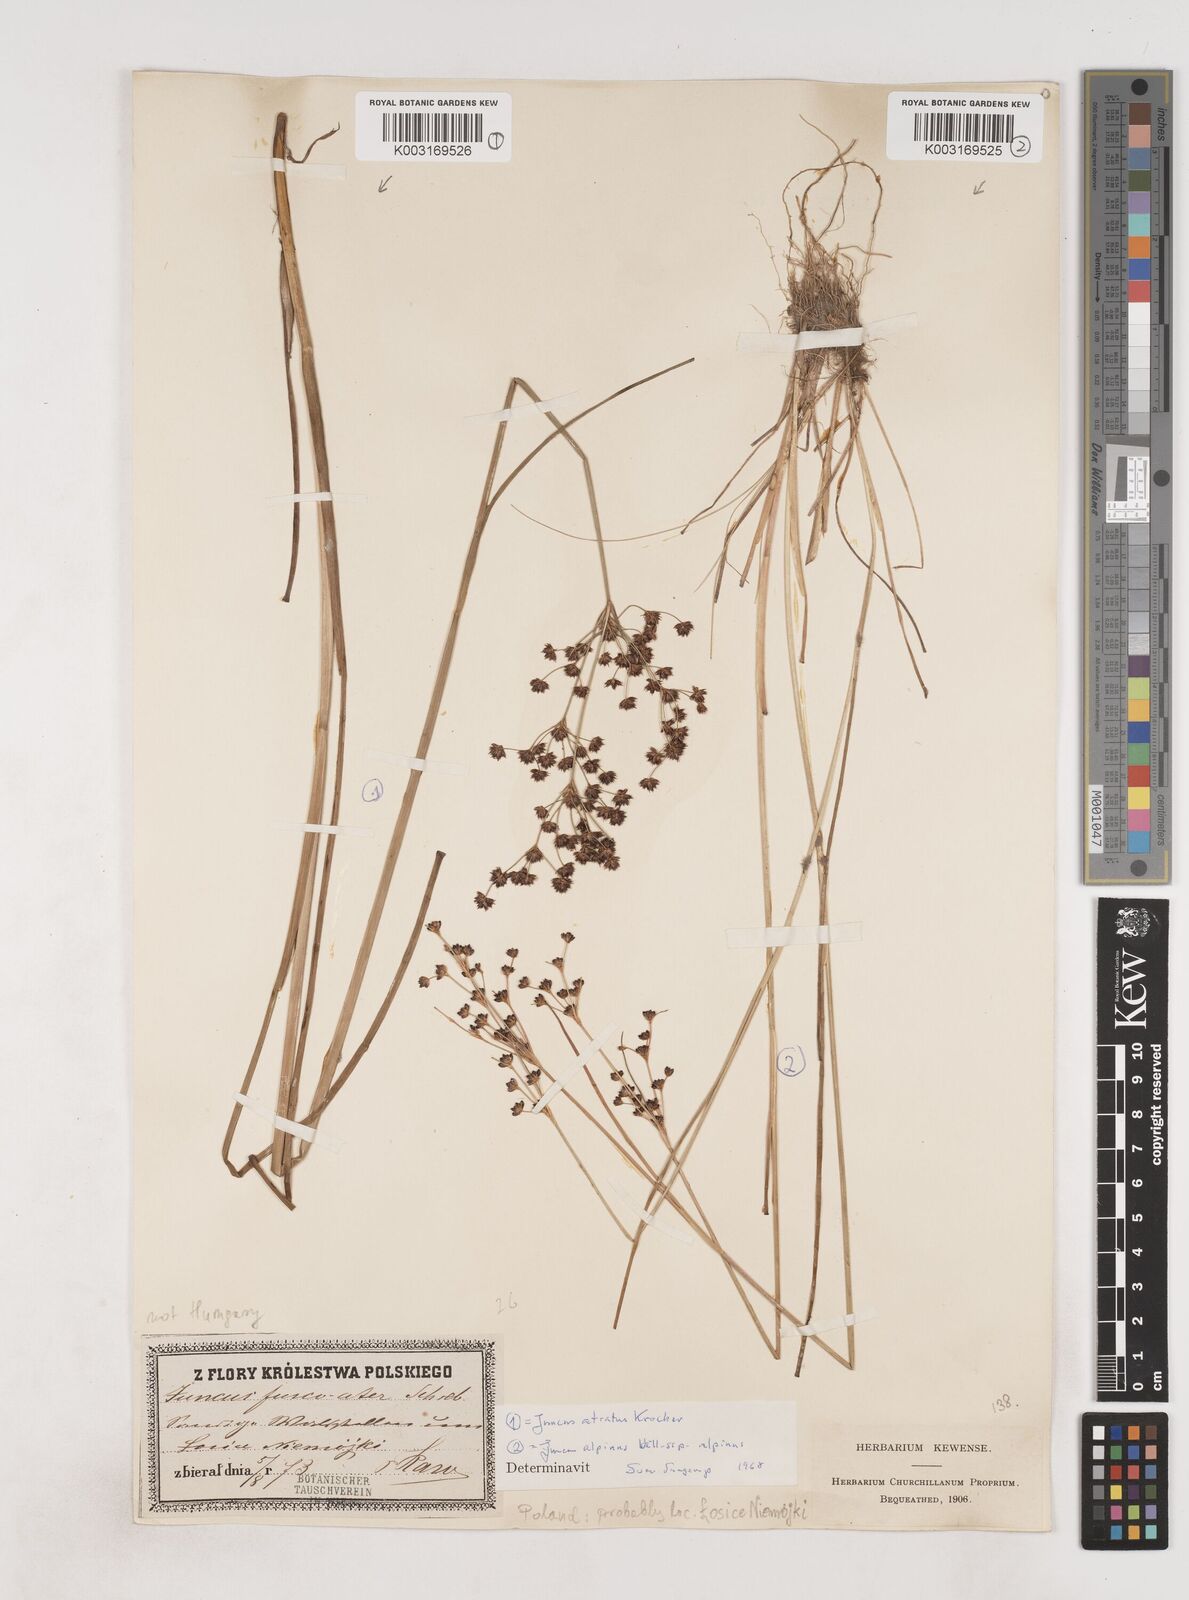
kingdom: Plantae
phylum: Tracheophyta
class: Liliopsida
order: Poales
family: Juncaceae
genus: Juncus
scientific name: Juncus atratus
